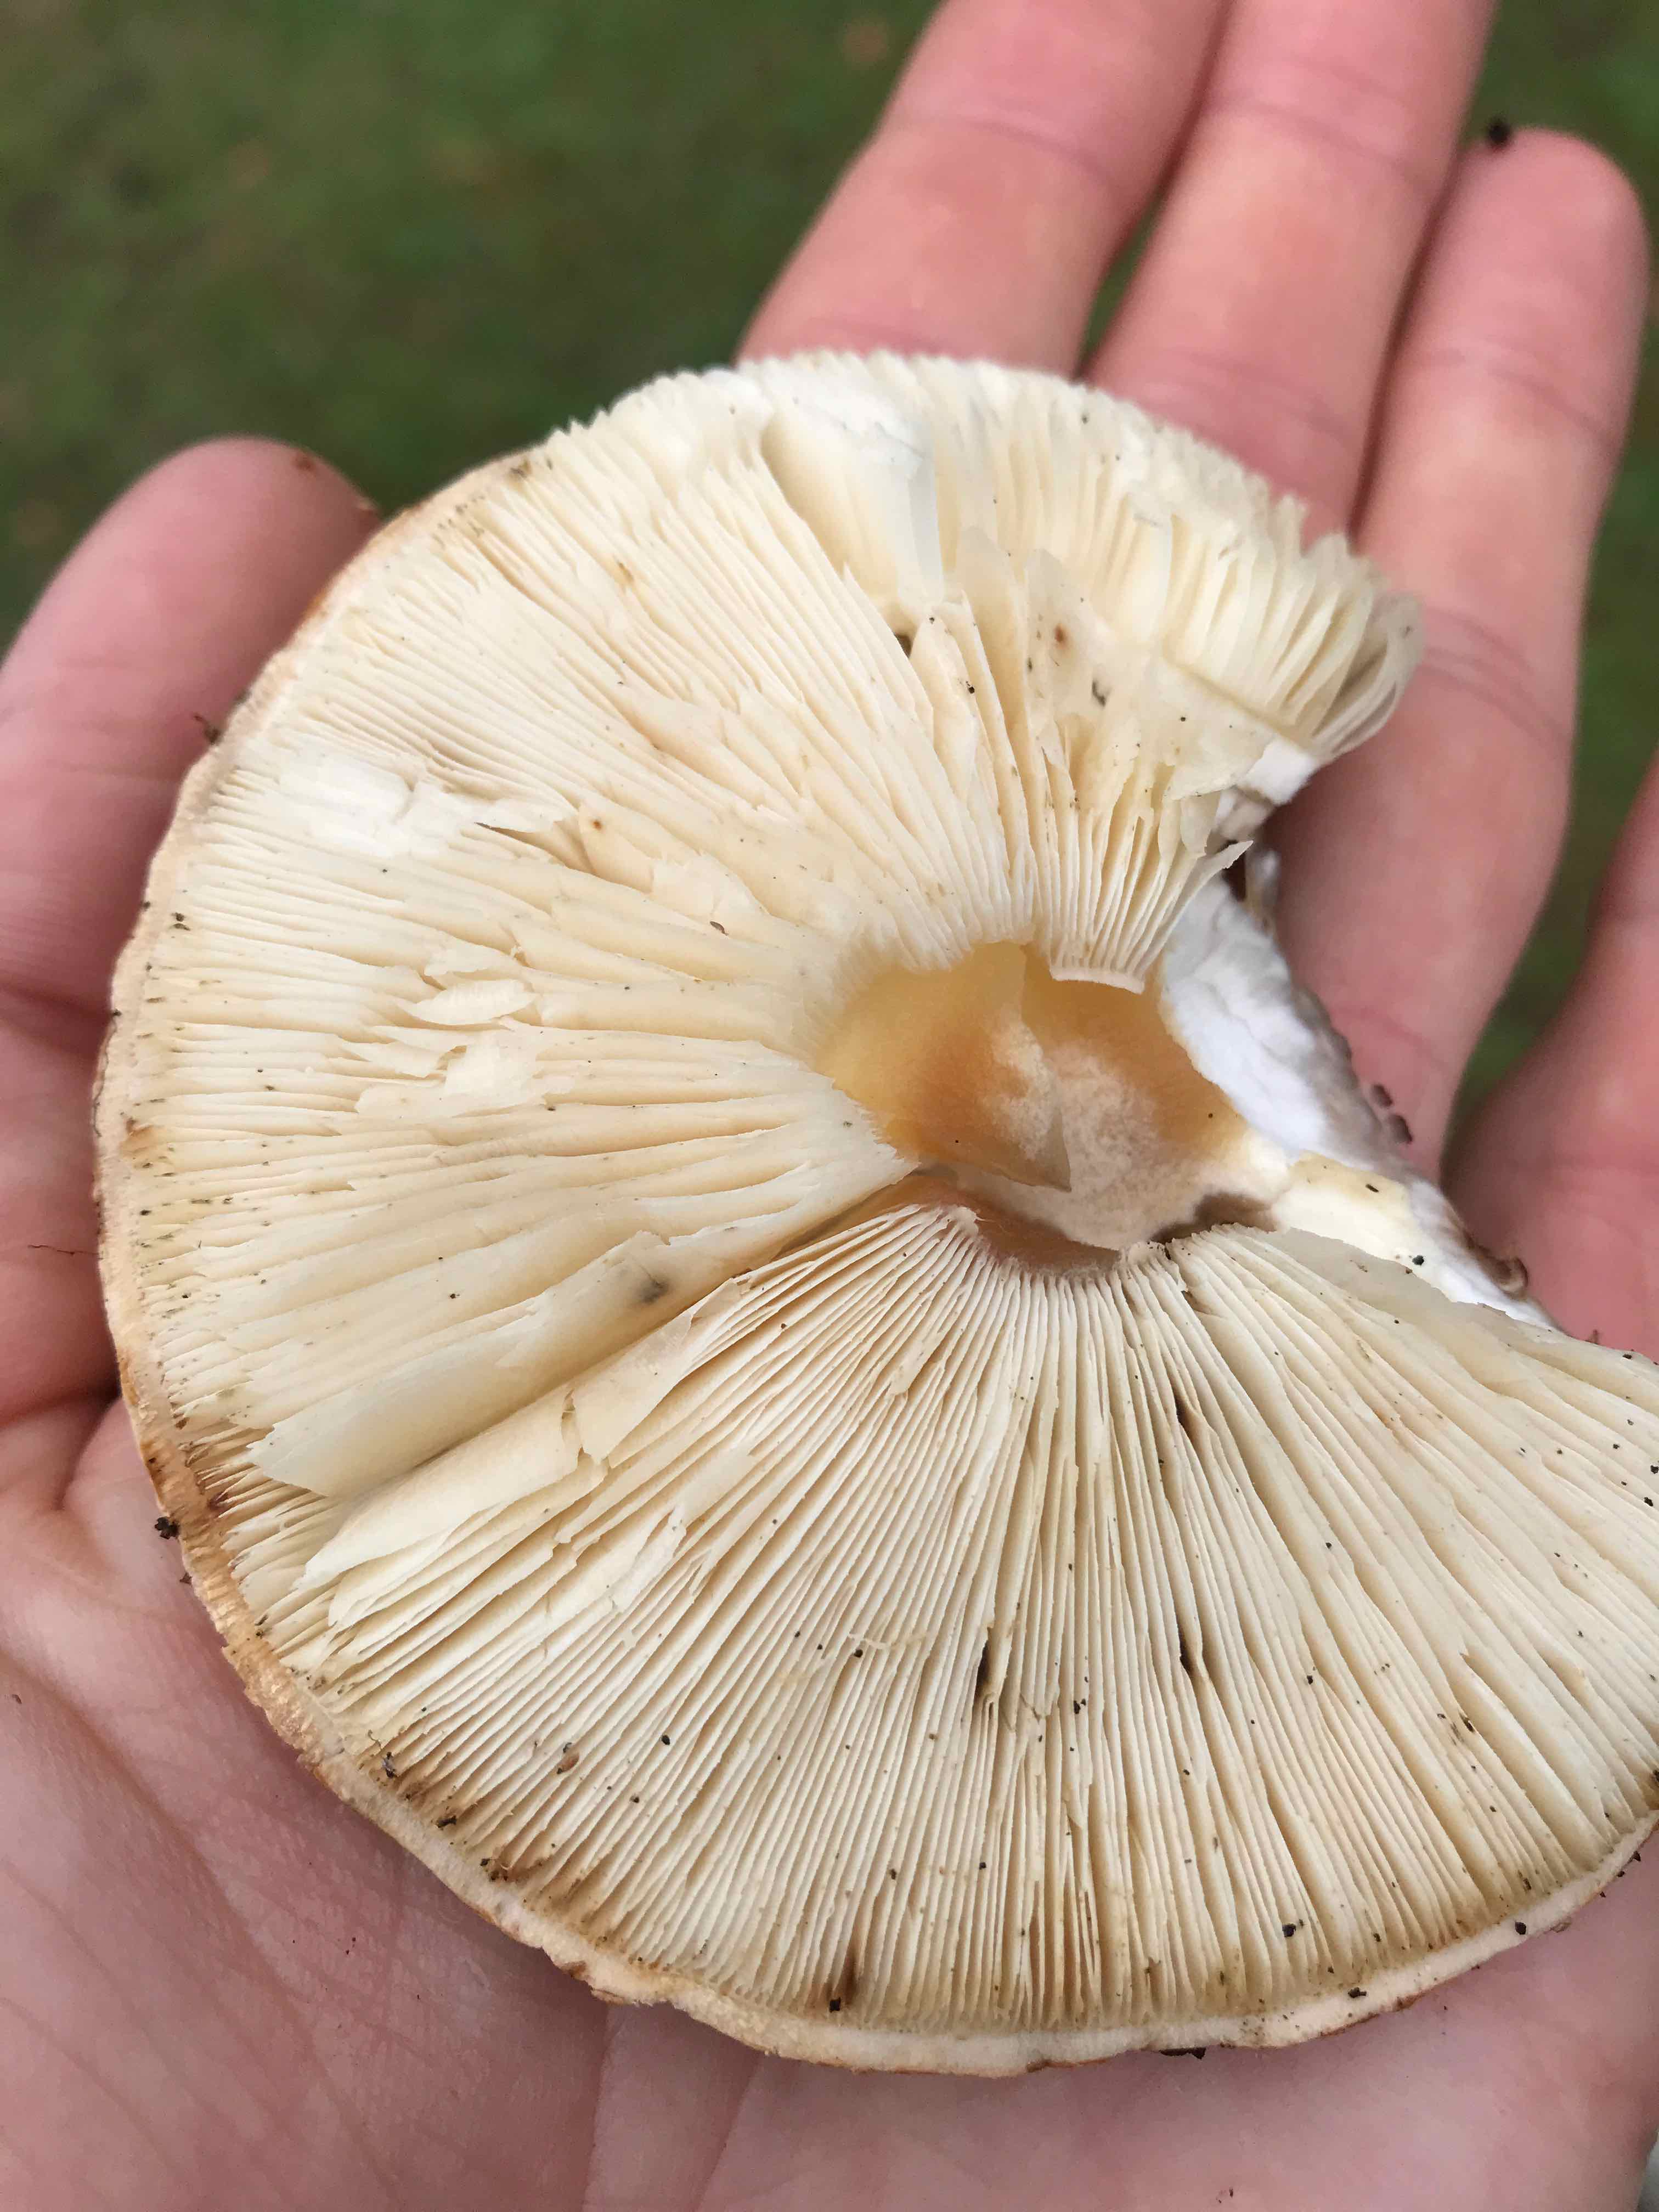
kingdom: Fungi
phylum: Basidiomycota
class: Agaricomycetes
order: Agaricales
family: Agaricaceae
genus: Echinoderma
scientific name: Echinoderma asperum
